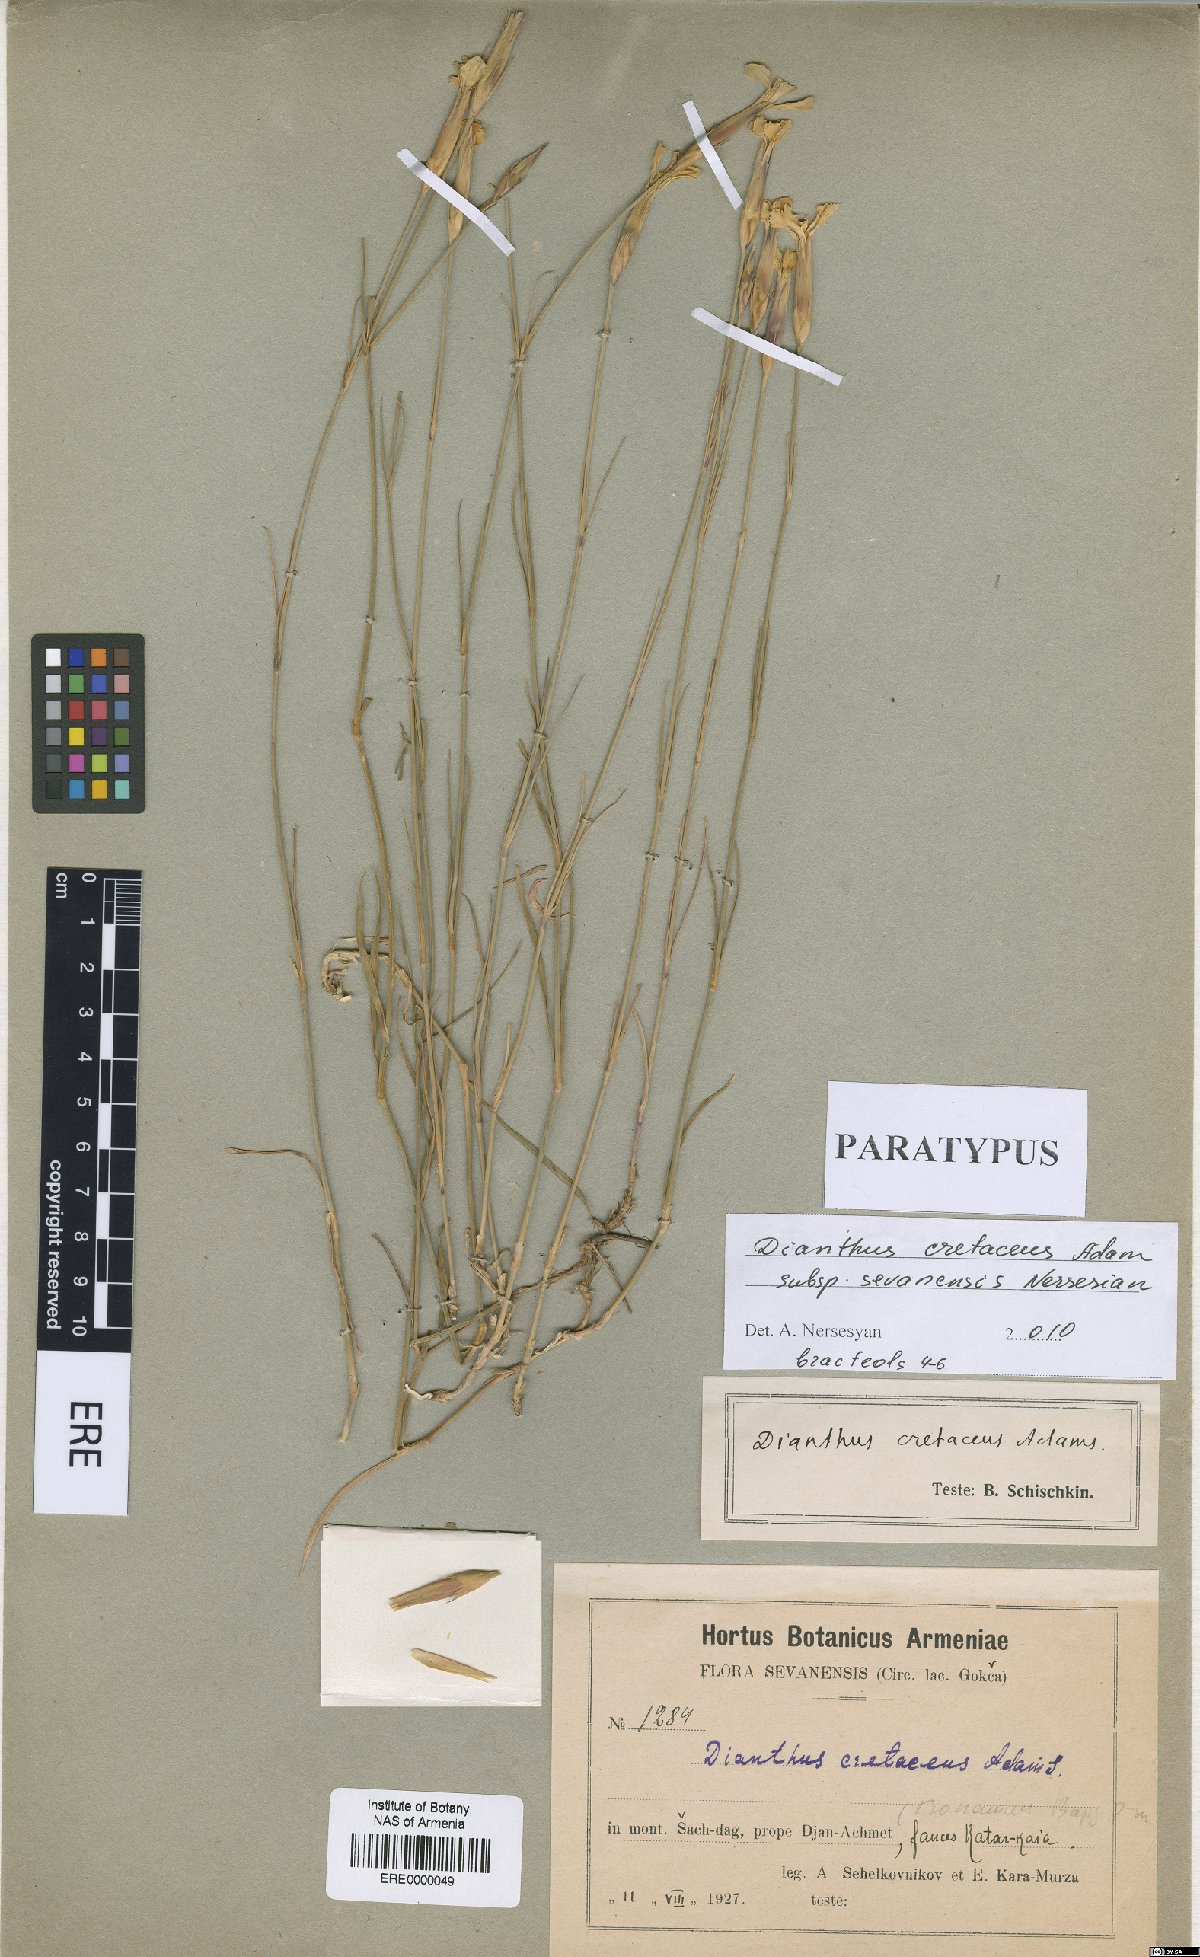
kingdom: Plantae
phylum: Tracheophyta
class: Magnoliopsida
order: Caryophyllales
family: Caryophyllaceae
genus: Dianthus
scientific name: Dianthus cretaceus
